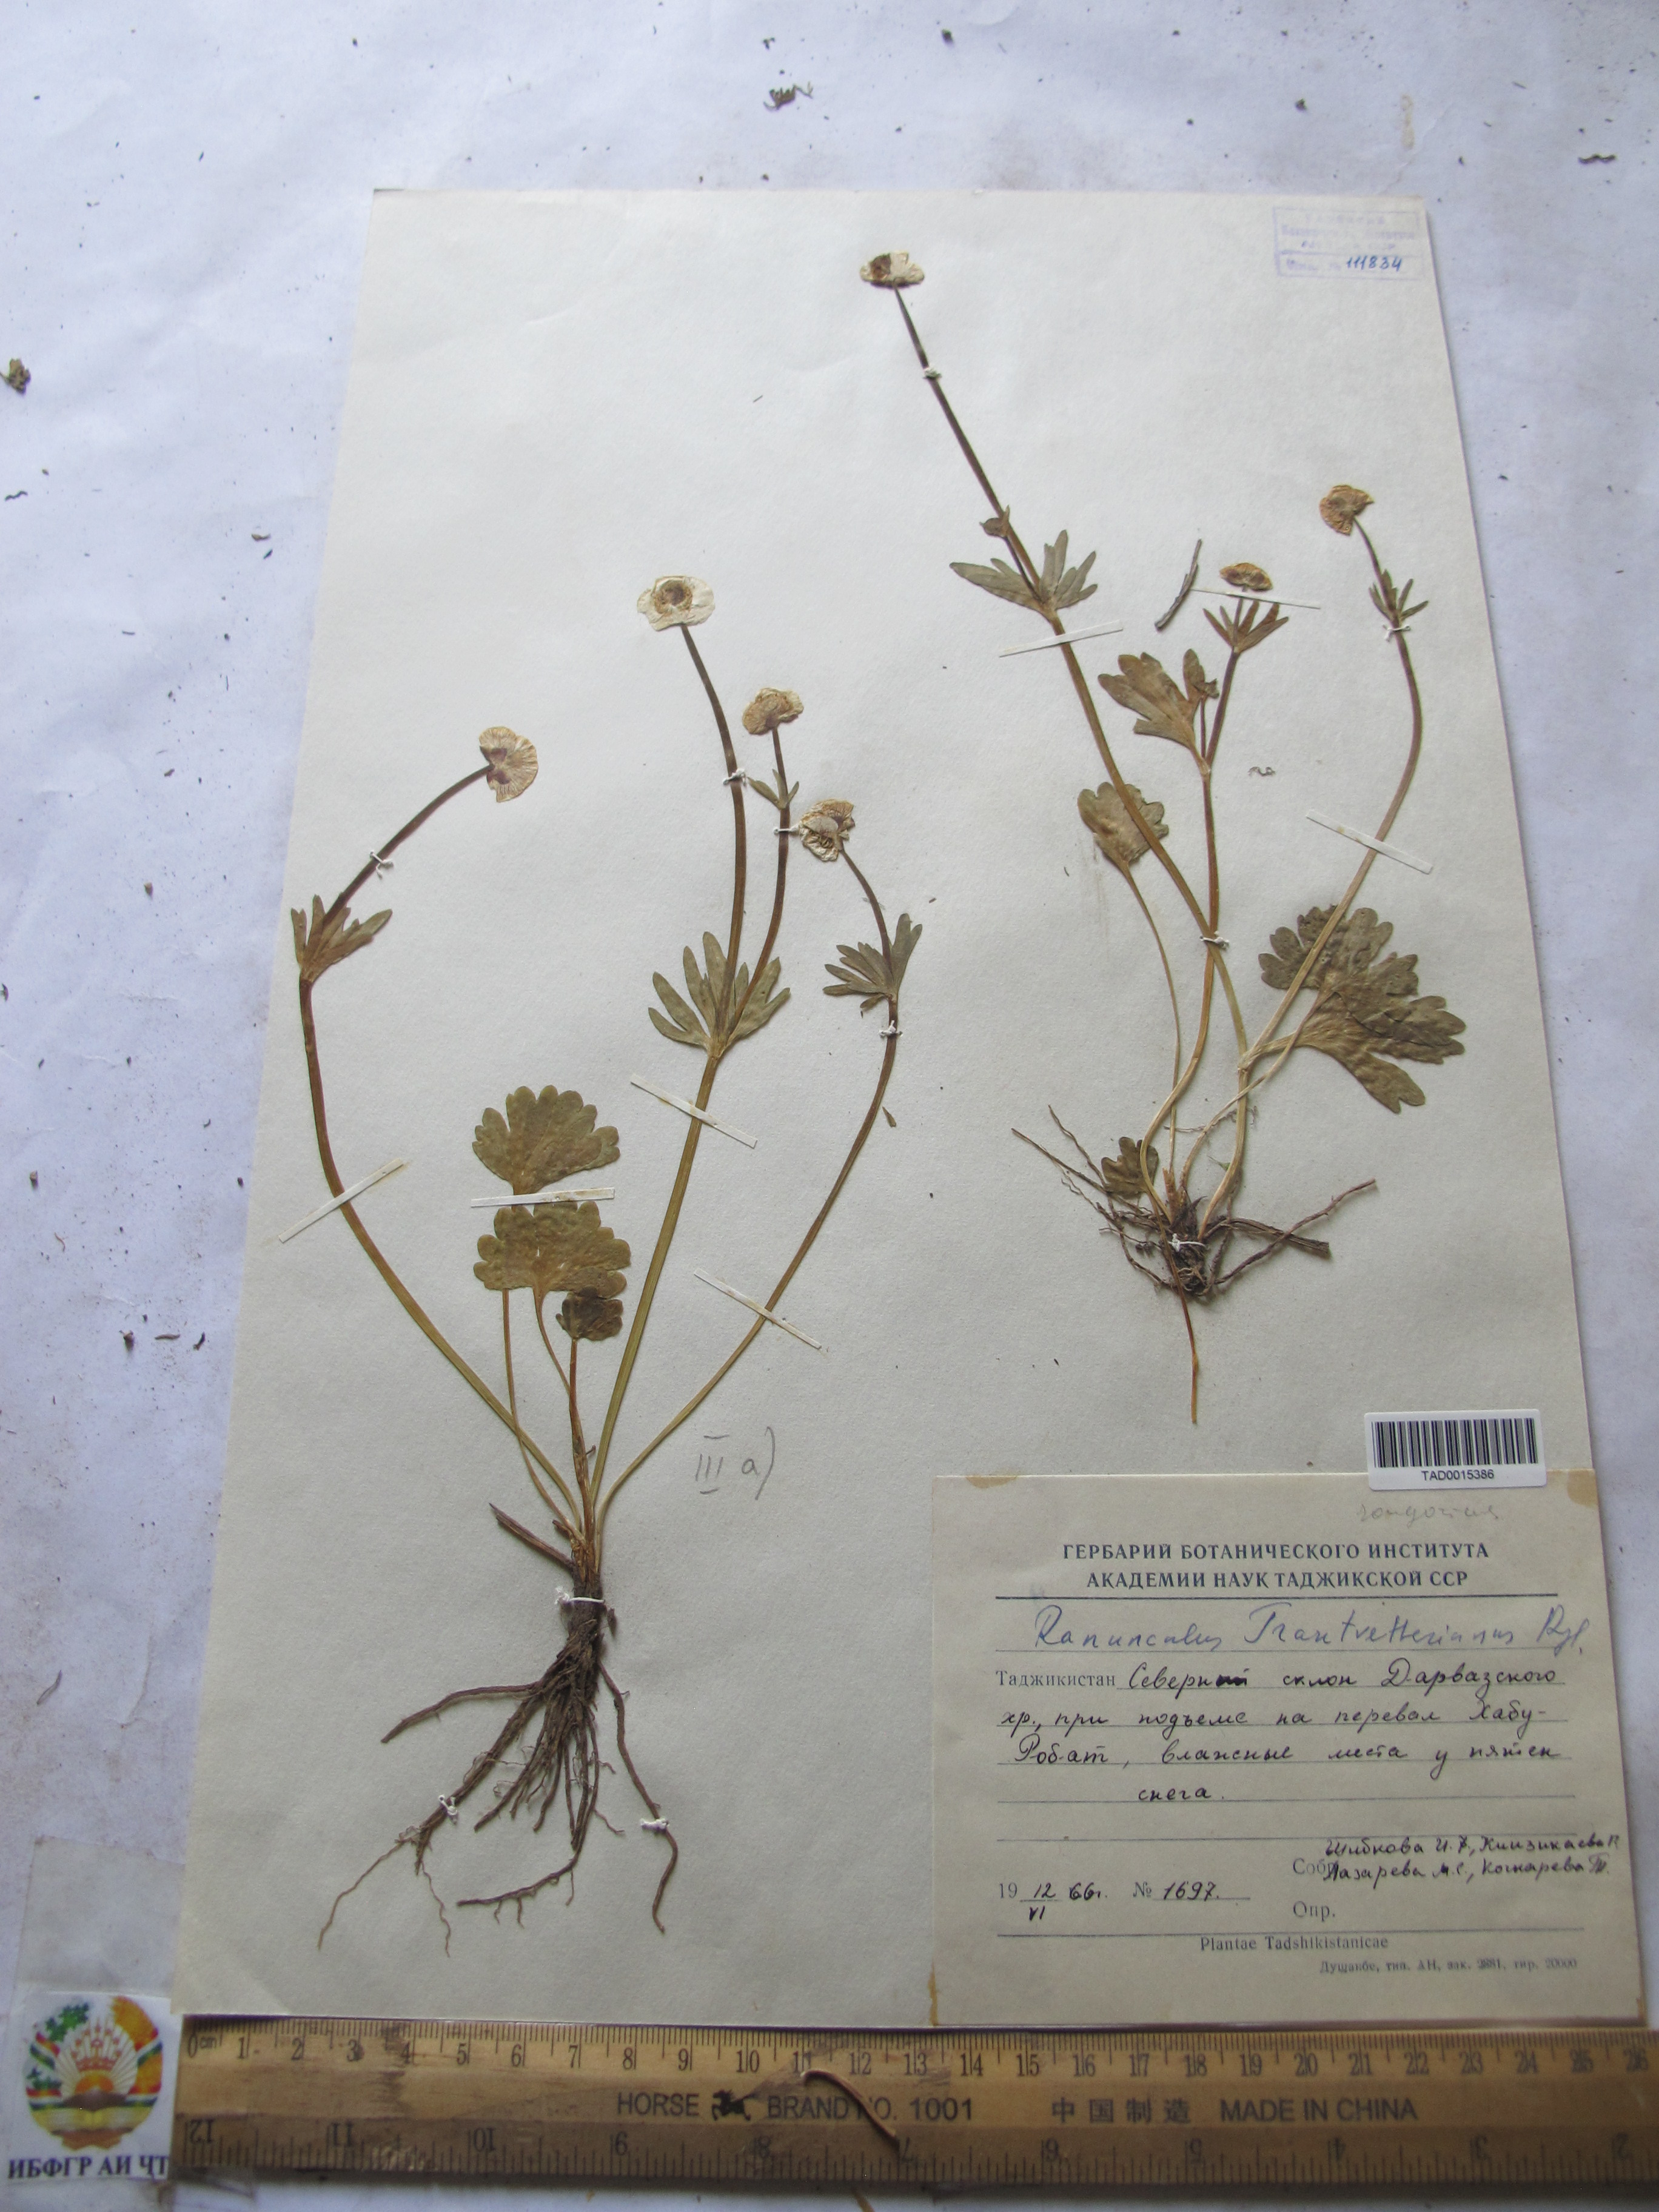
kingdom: Plantae
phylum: Tracheophyta
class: Magnoliopsida
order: Ranunculales
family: Ranunculaceae
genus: Ranunculus
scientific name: Ranunculus songaricus
